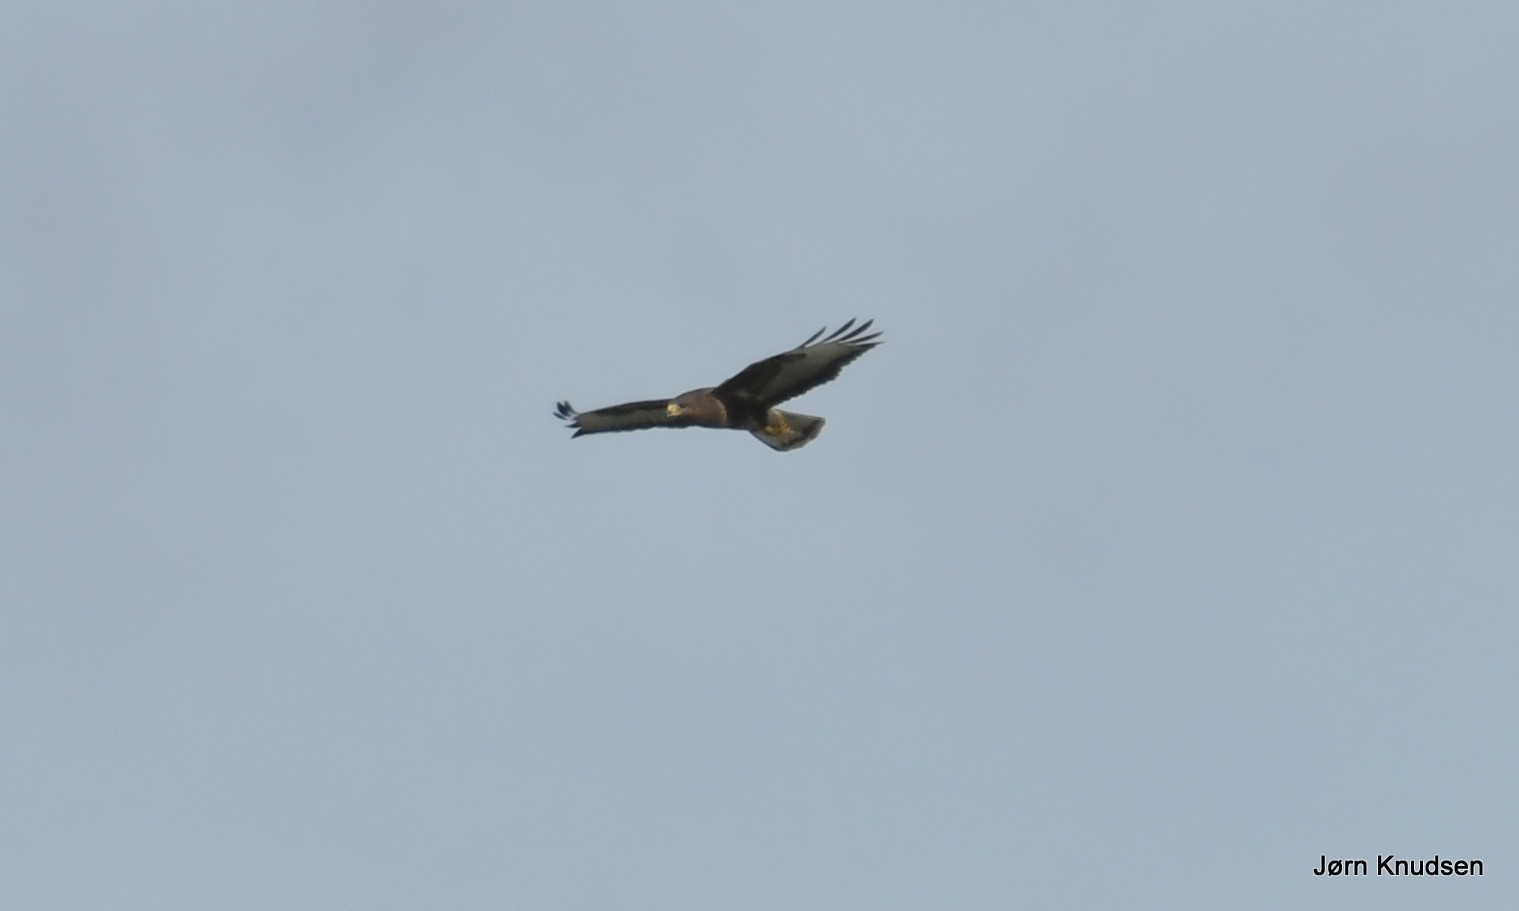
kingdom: Animalia
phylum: Chordata
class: Aves
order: Accipitriformes
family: Accipitridae
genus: Buteo
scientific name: Buteo buteo
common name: Musvåge
